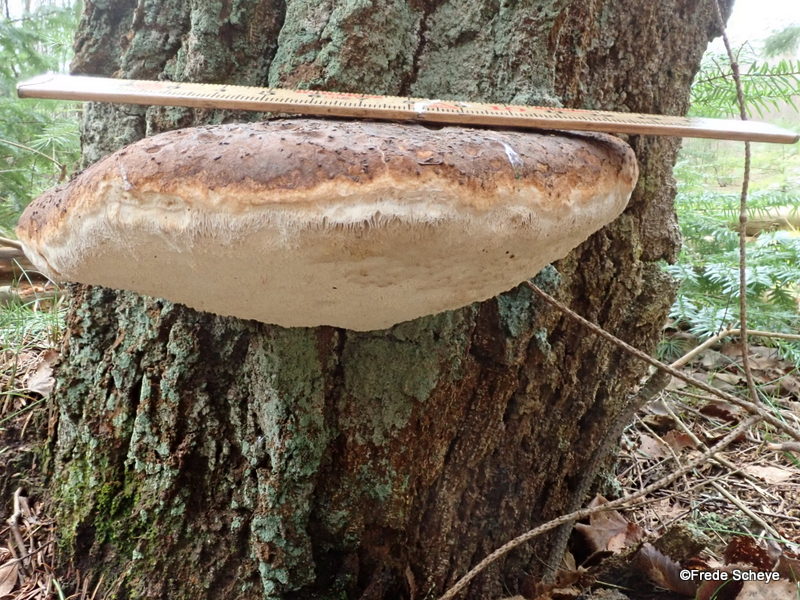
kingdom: Fungi
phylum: Basidiomycota
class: Agaricomycetes
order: Polyporales
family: Fomitopsidaceae
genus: Fomitopsis
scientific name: Fomitopsis betulina
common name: birkeporesvamp
